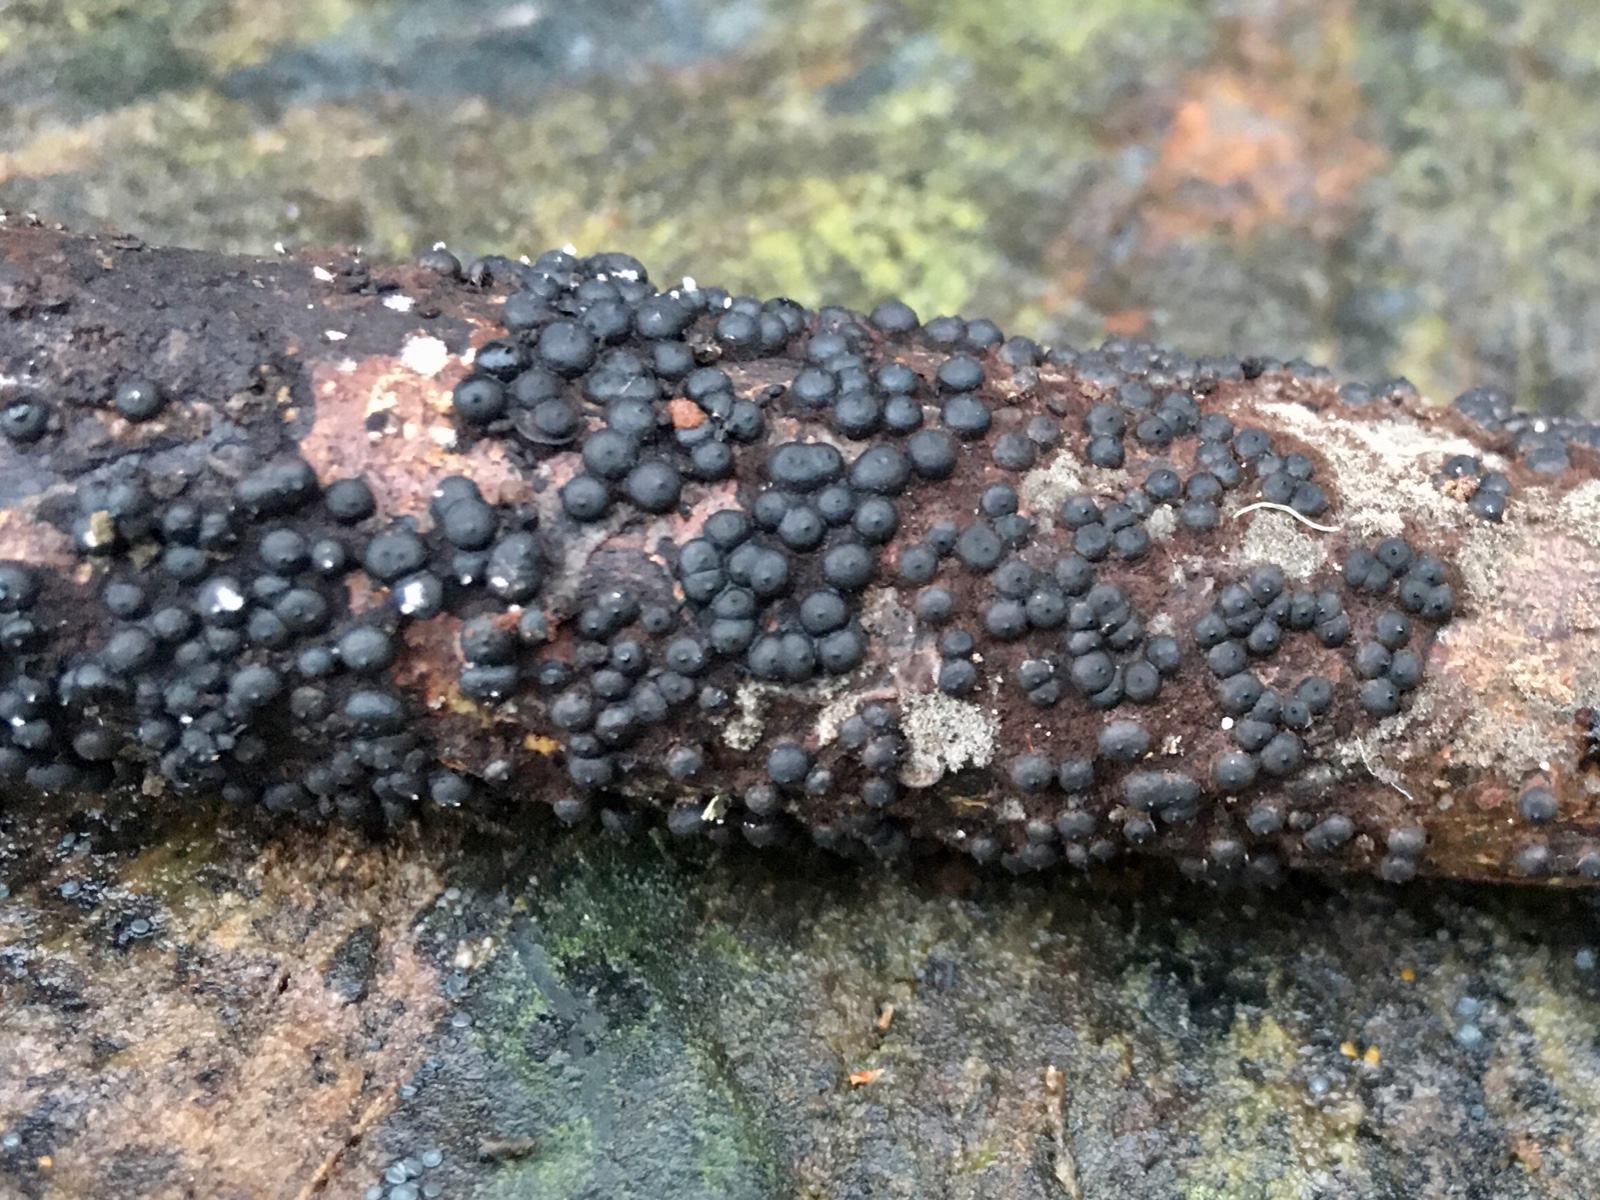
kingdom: Fungi
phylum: Ascomycota
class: Sordariomycetes
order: Xylariales
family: Xylariaceae
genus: Rosellinia
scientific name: Rosellinia
